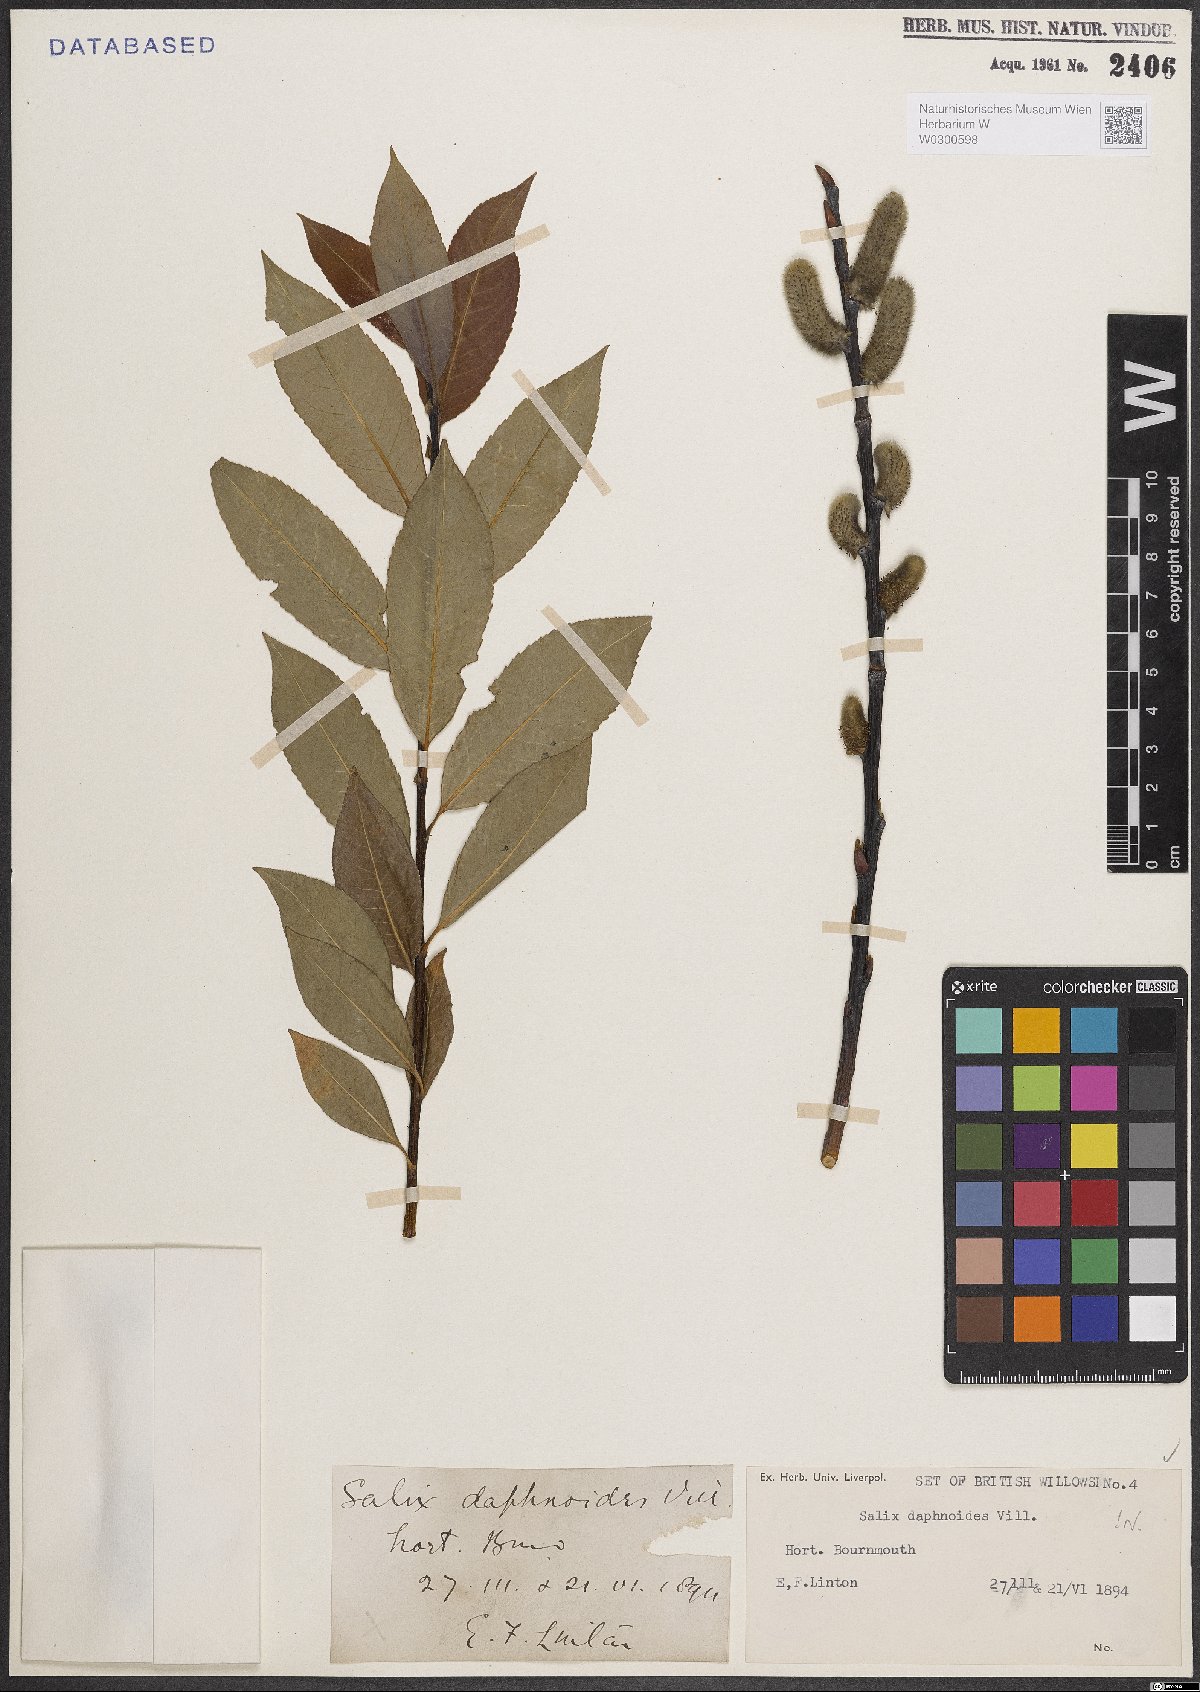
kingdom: Plantae
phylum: Tracheophyta
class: Magnoliopsida
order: Malpighiales
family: Salicaceae
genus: Salix
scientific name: Salix daphnoides
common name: European violet-willow
